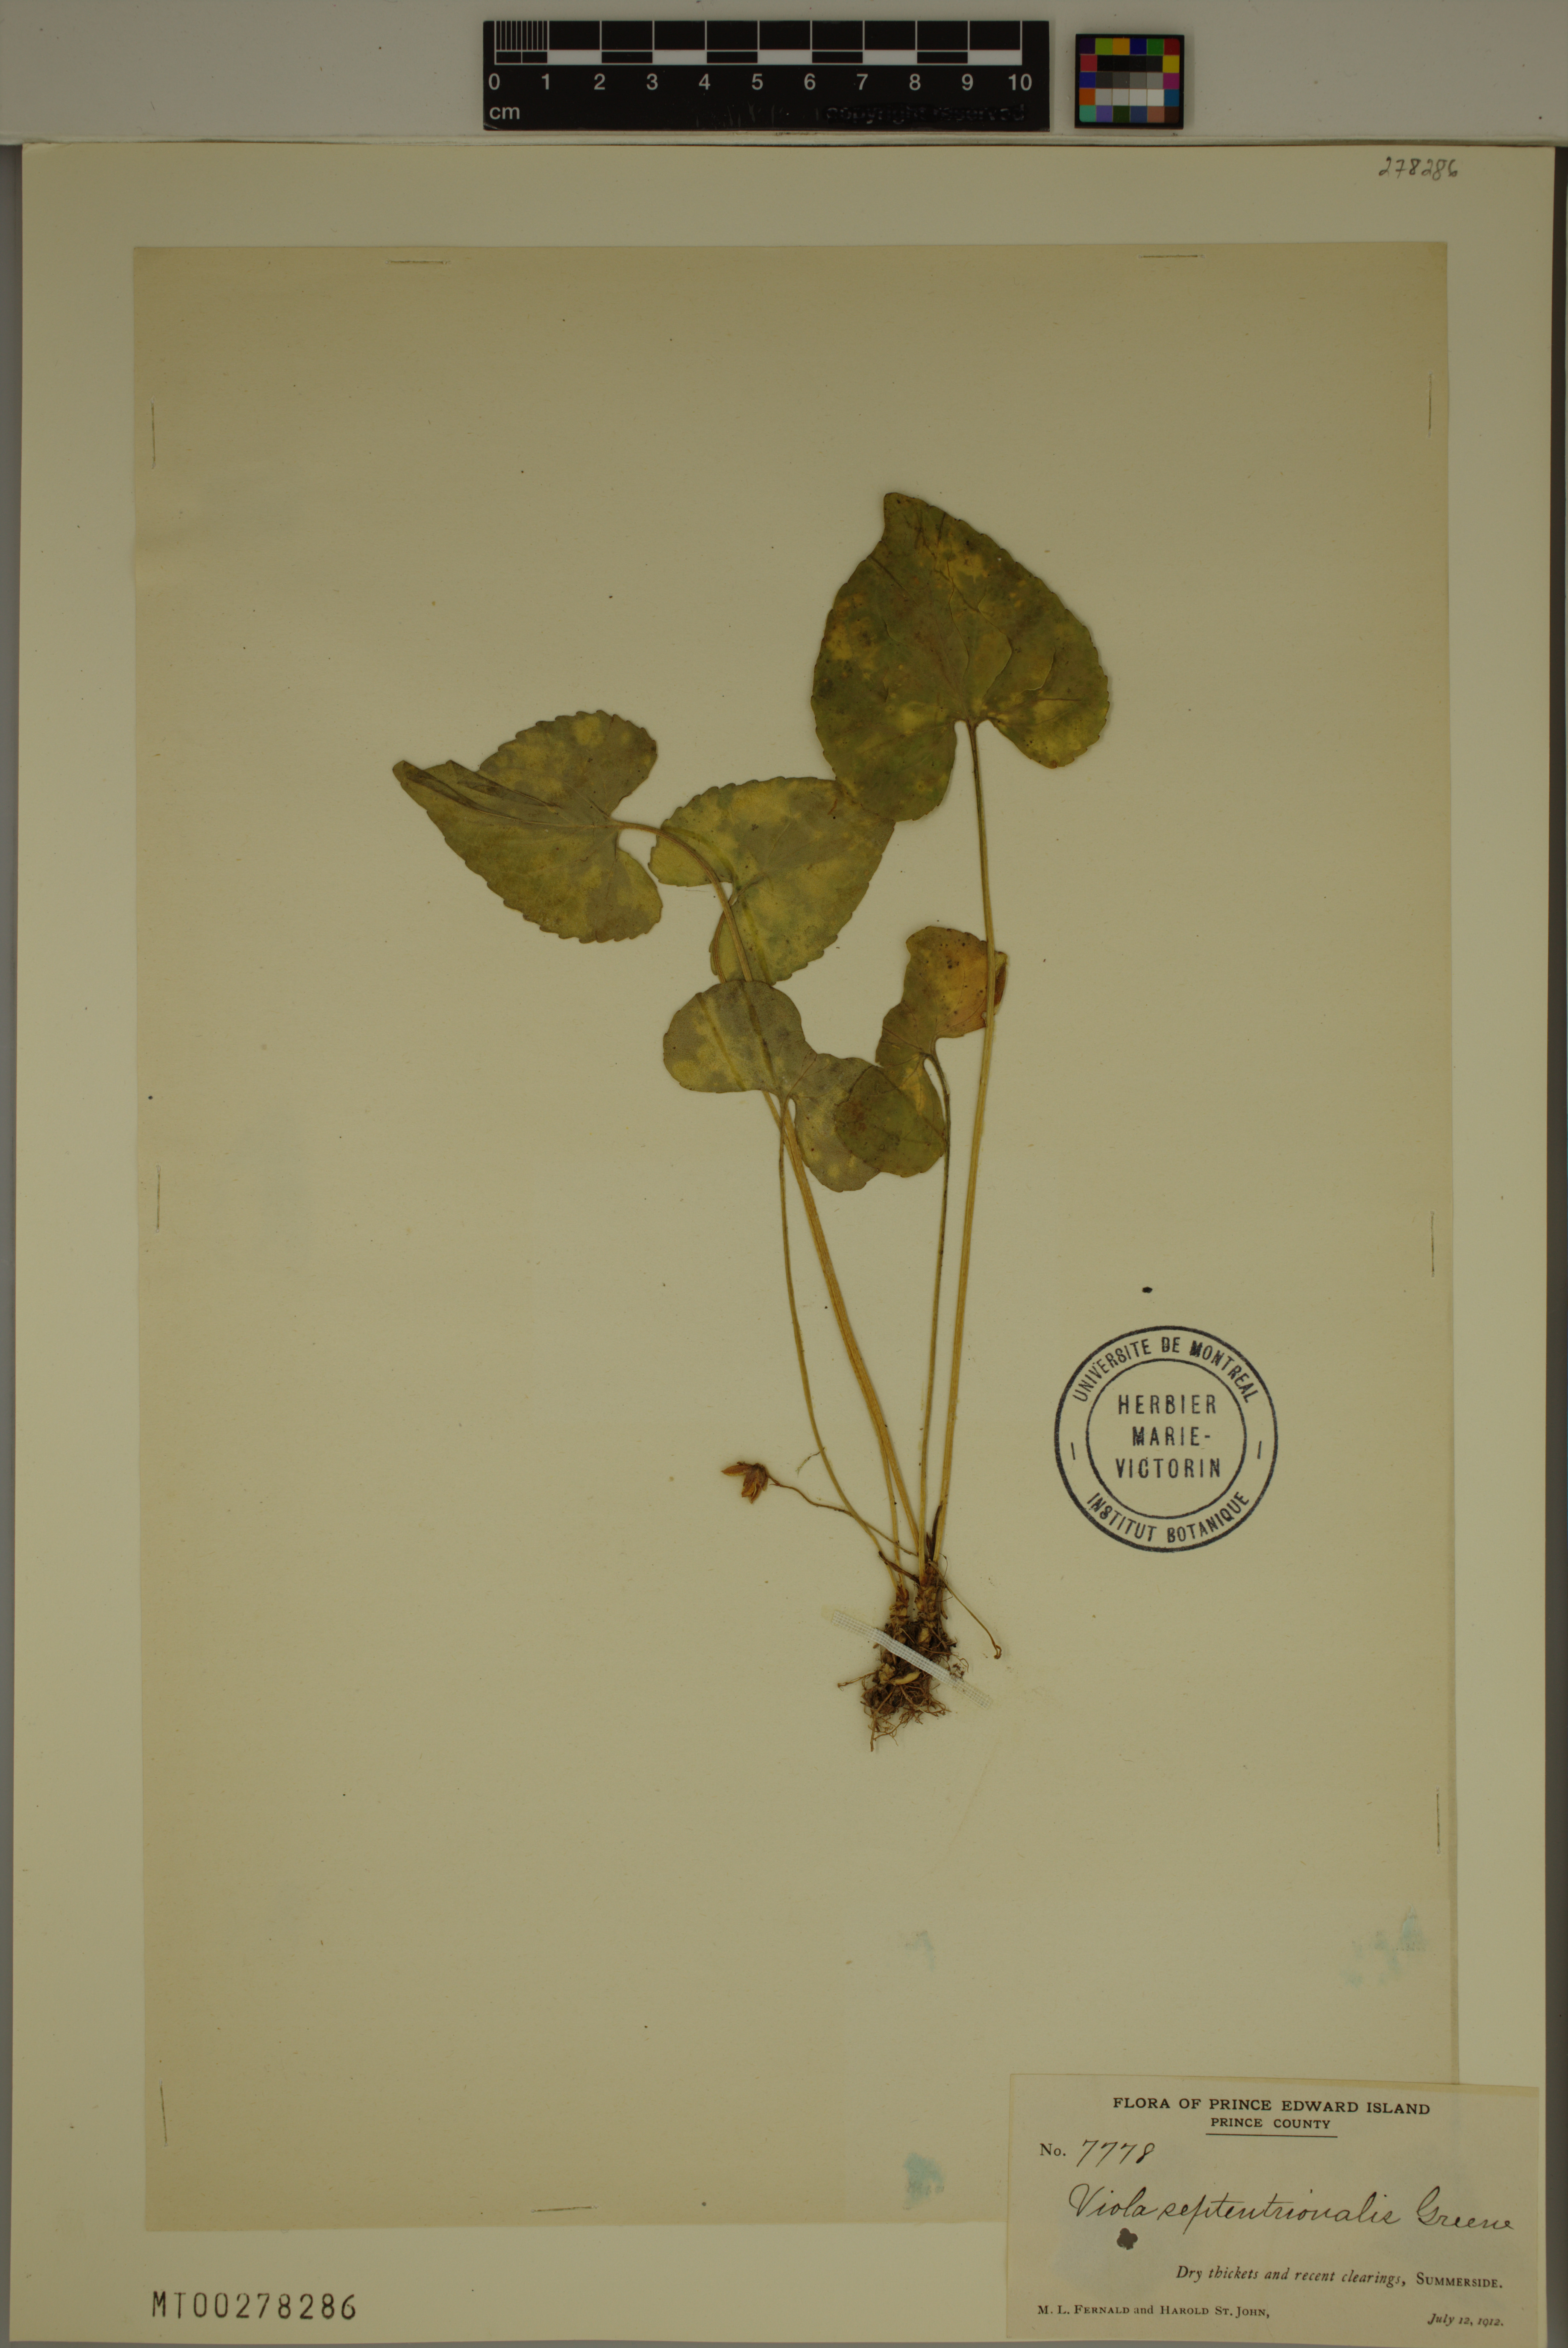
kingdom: Plantae
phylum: Tracheophyta
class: Magnoliopsida
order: Malpighiales
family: Violaceae
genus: Viola
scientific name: Viola sororia
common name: Dooryard violet
